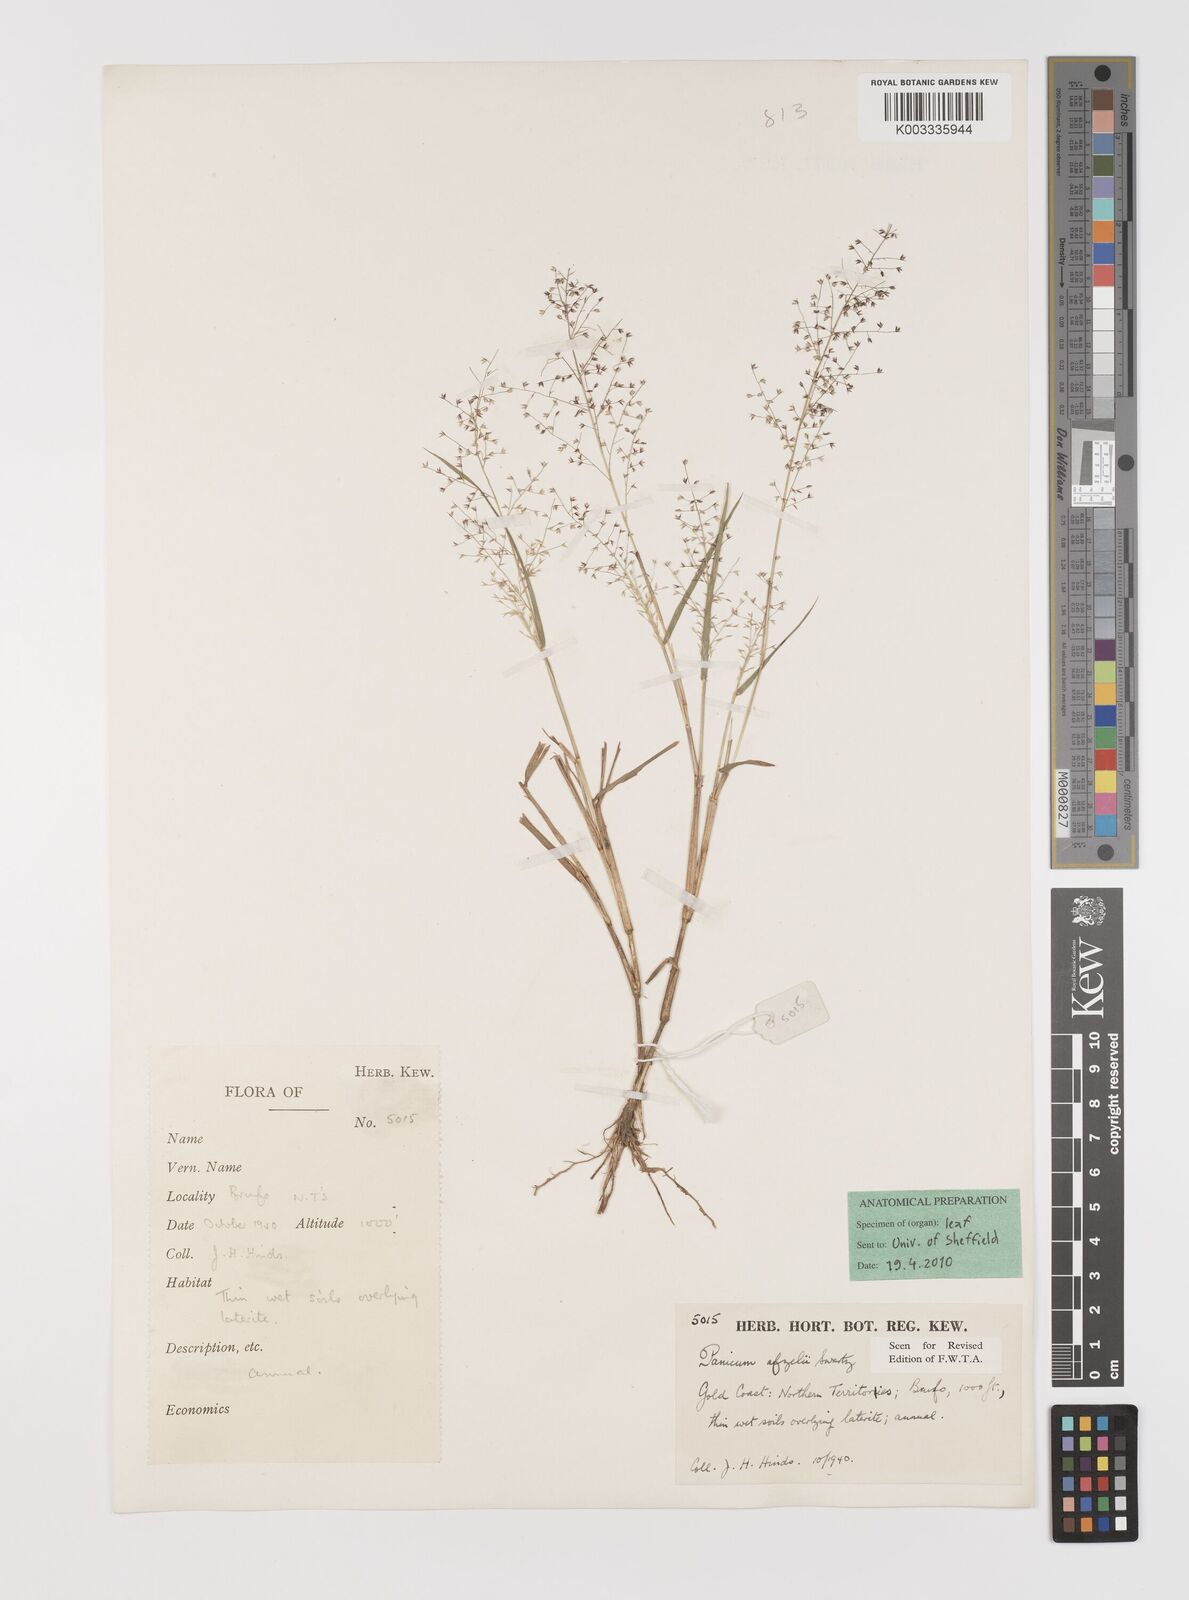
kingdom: Plantae
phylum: Tracheophyta
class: Liliopsida
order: Poales
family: Poaceae
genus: Panicum
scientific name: Panicum afzelii
